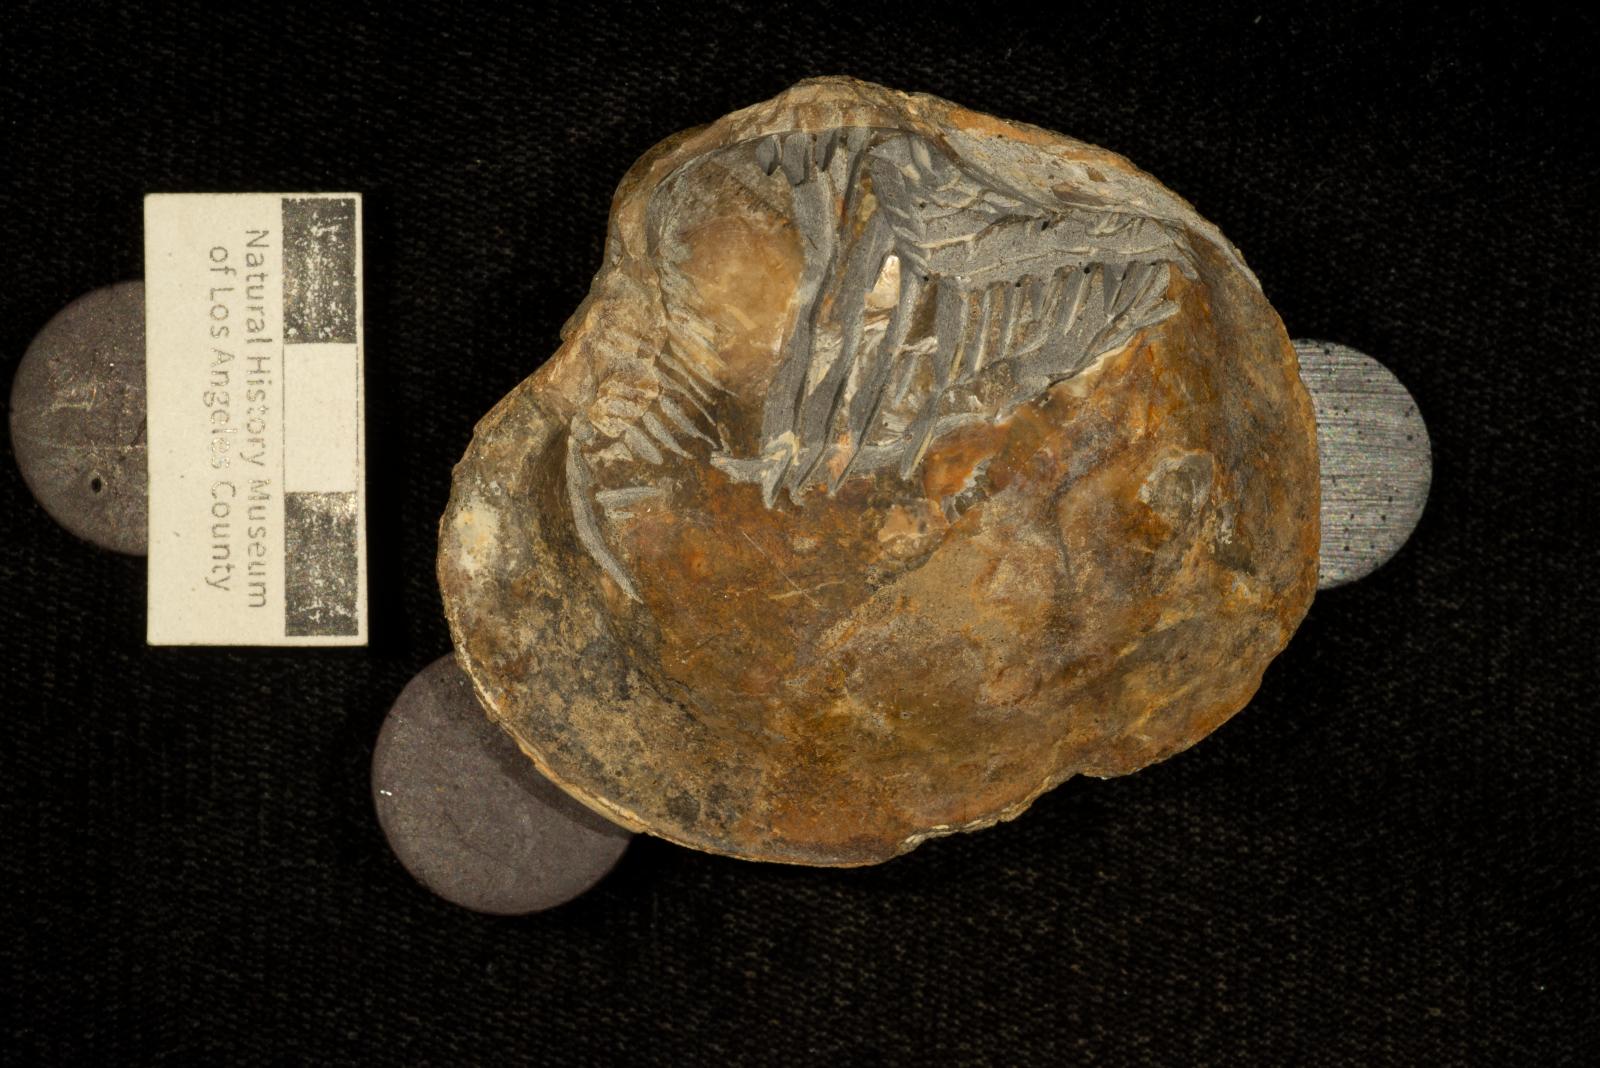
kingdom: Animalia
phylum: Mollusca
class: Bivalvia
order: Venerida
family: Veneridae
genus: Calva
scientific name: Calva Corbis peninsularis
